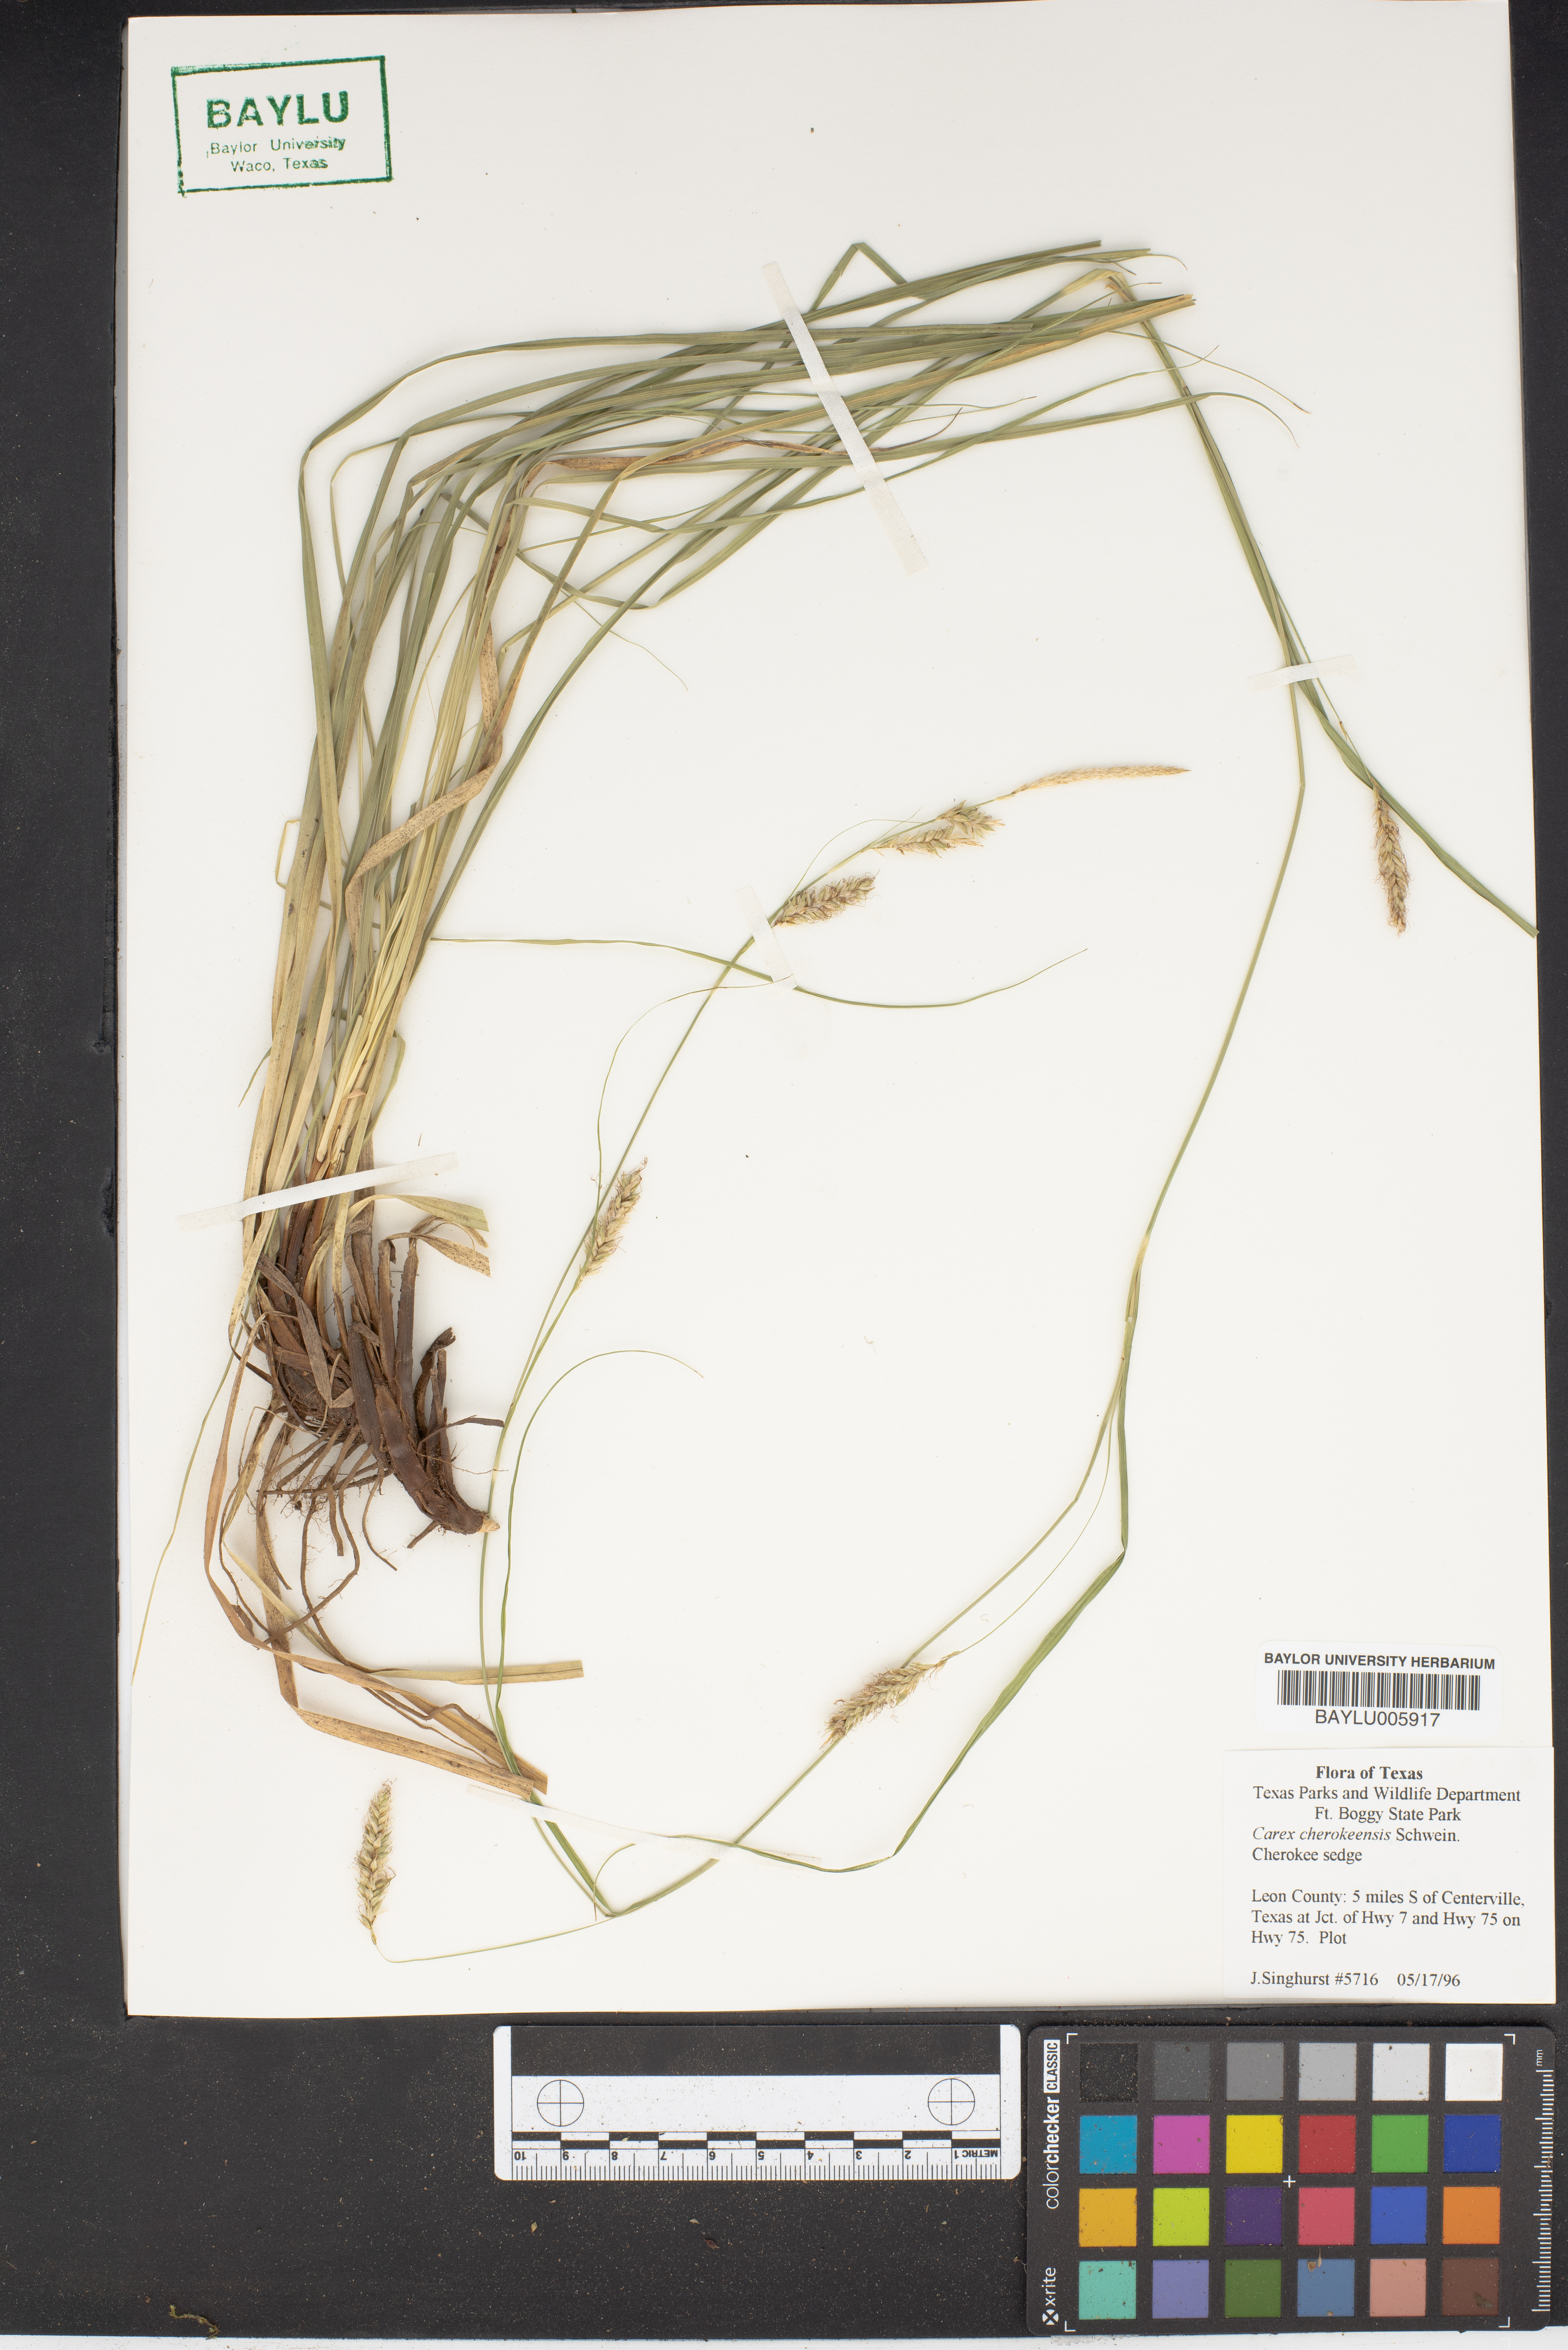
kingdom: Plantae
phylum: Tracheophyta
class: Liliopsida
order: Poales
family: Cyperaceae
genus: Carex
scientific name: Carex cherokeensis
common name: Cherokee sedge
